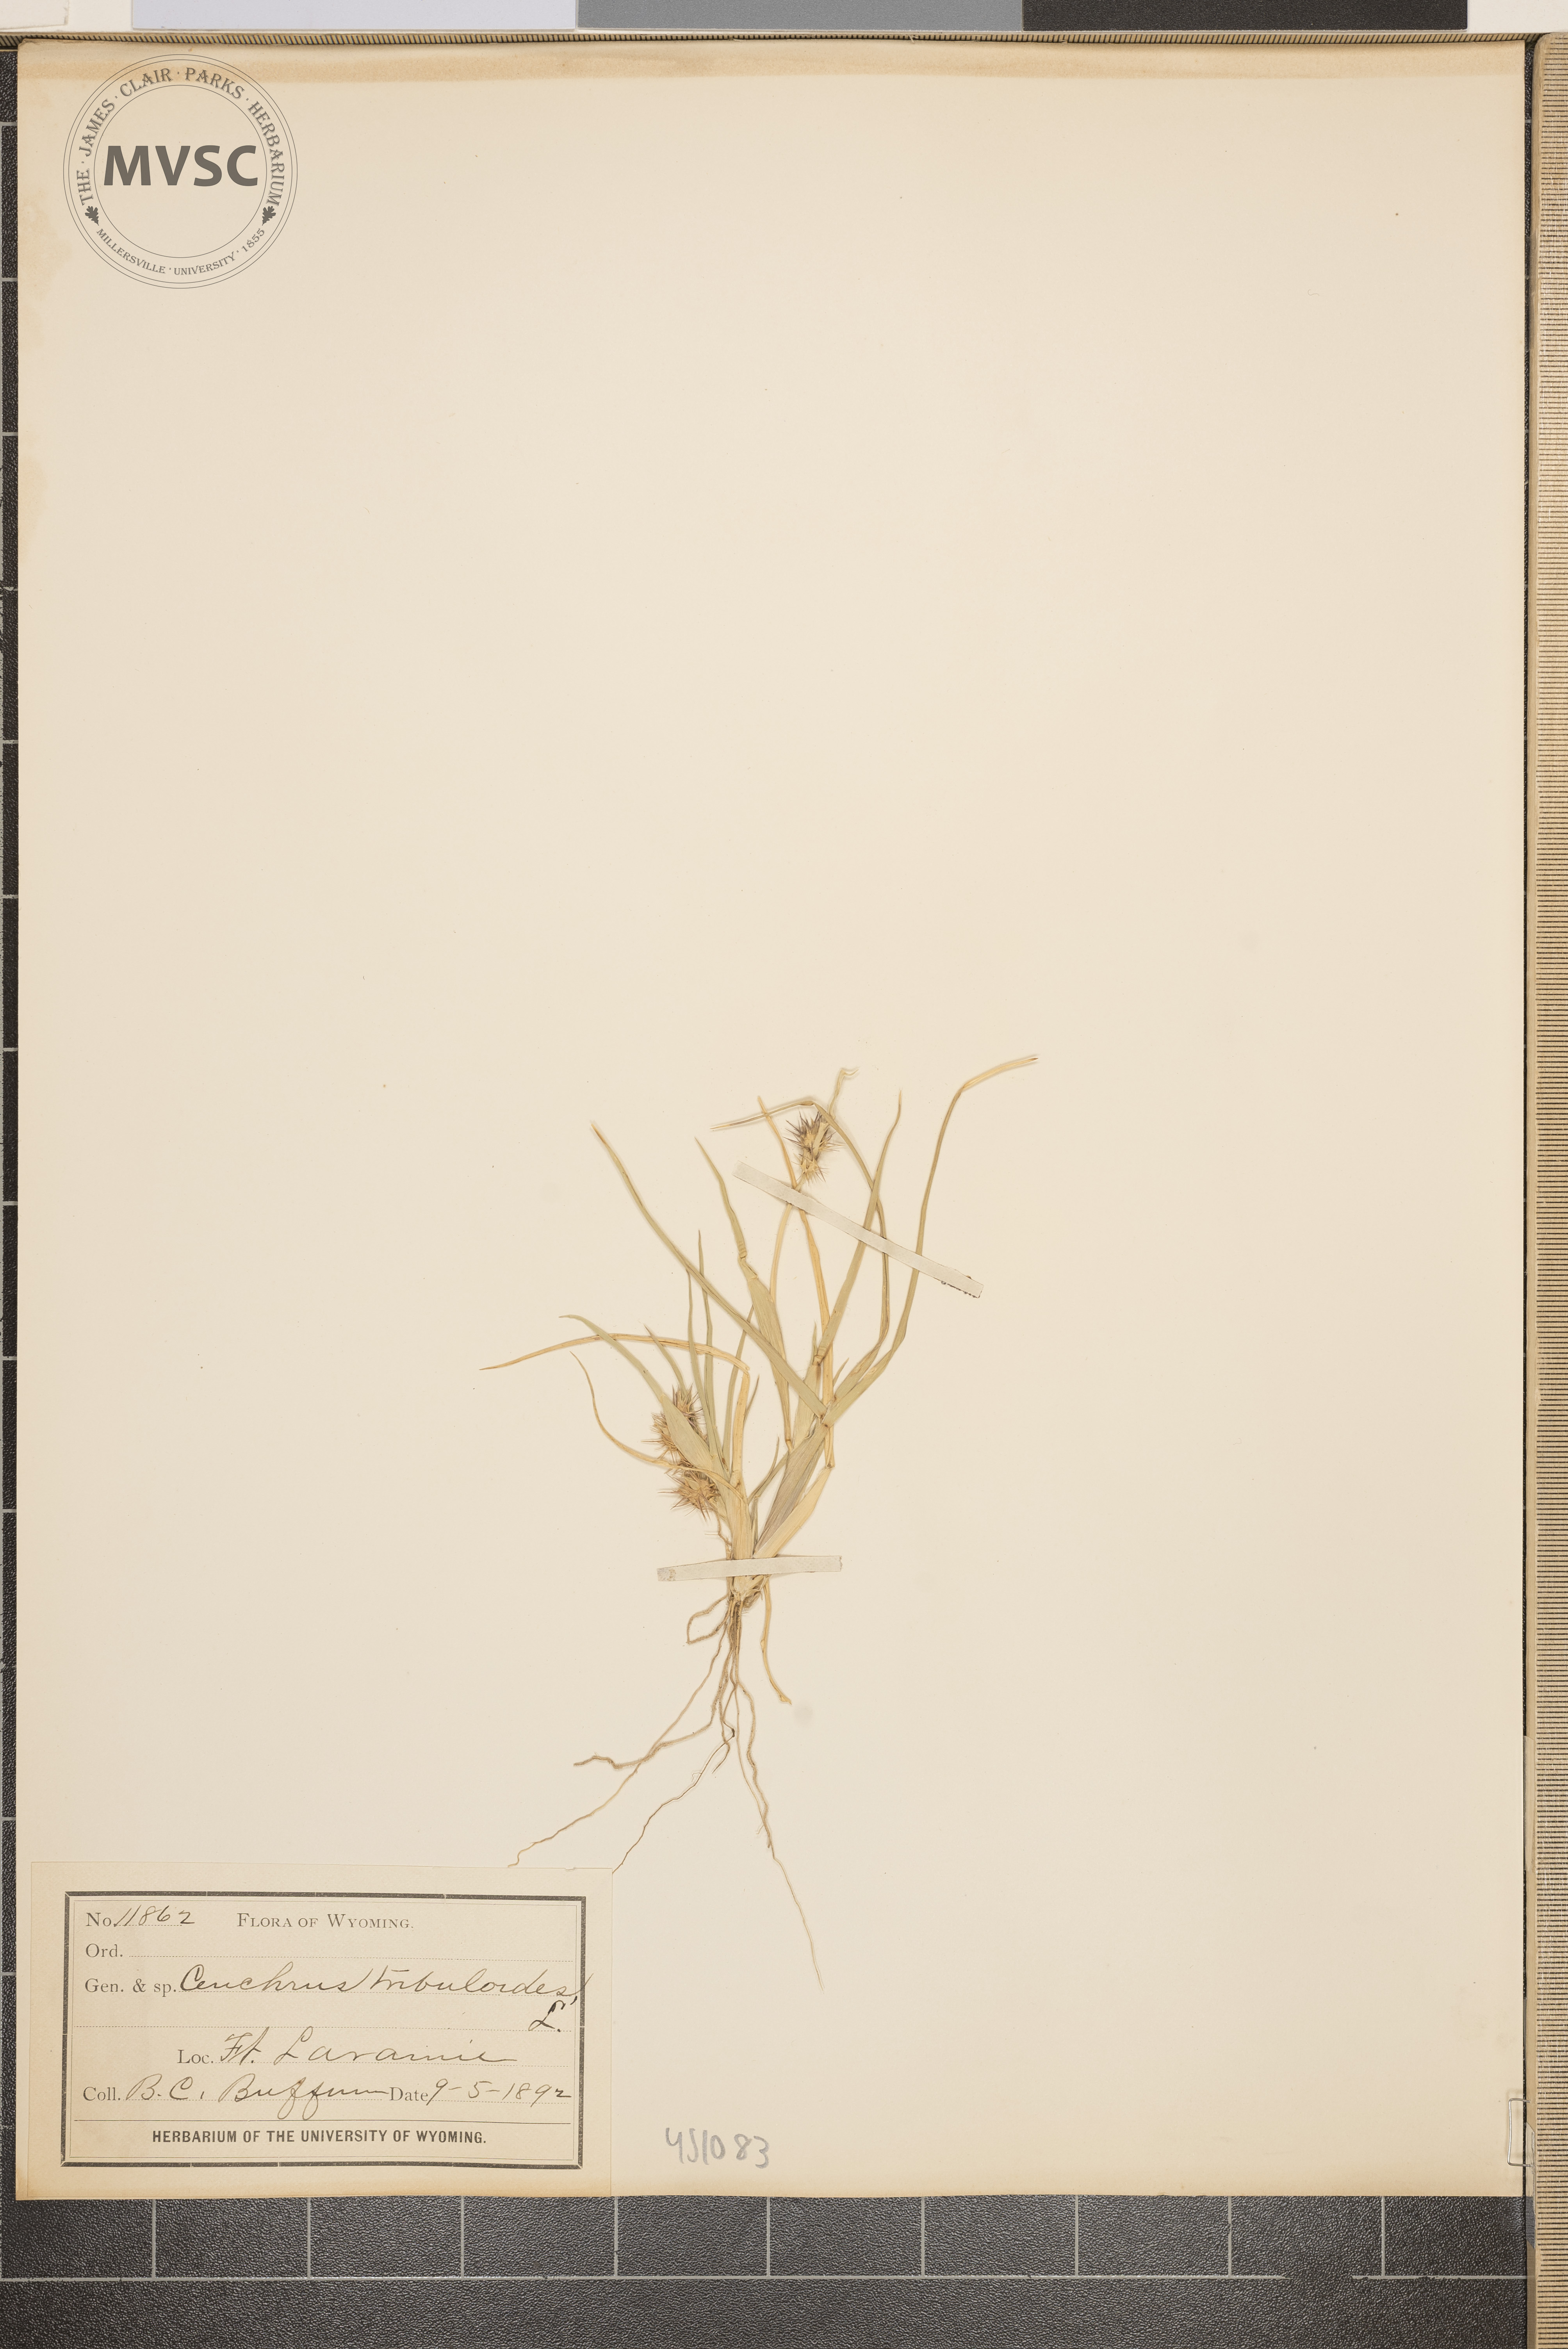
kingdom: Plantae
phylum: Tracheophyta
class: Liliopsida
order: Poales
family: Poaceae
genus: Cenchrus
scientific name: Cenchrus tribuloides
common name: Dune sandbur
